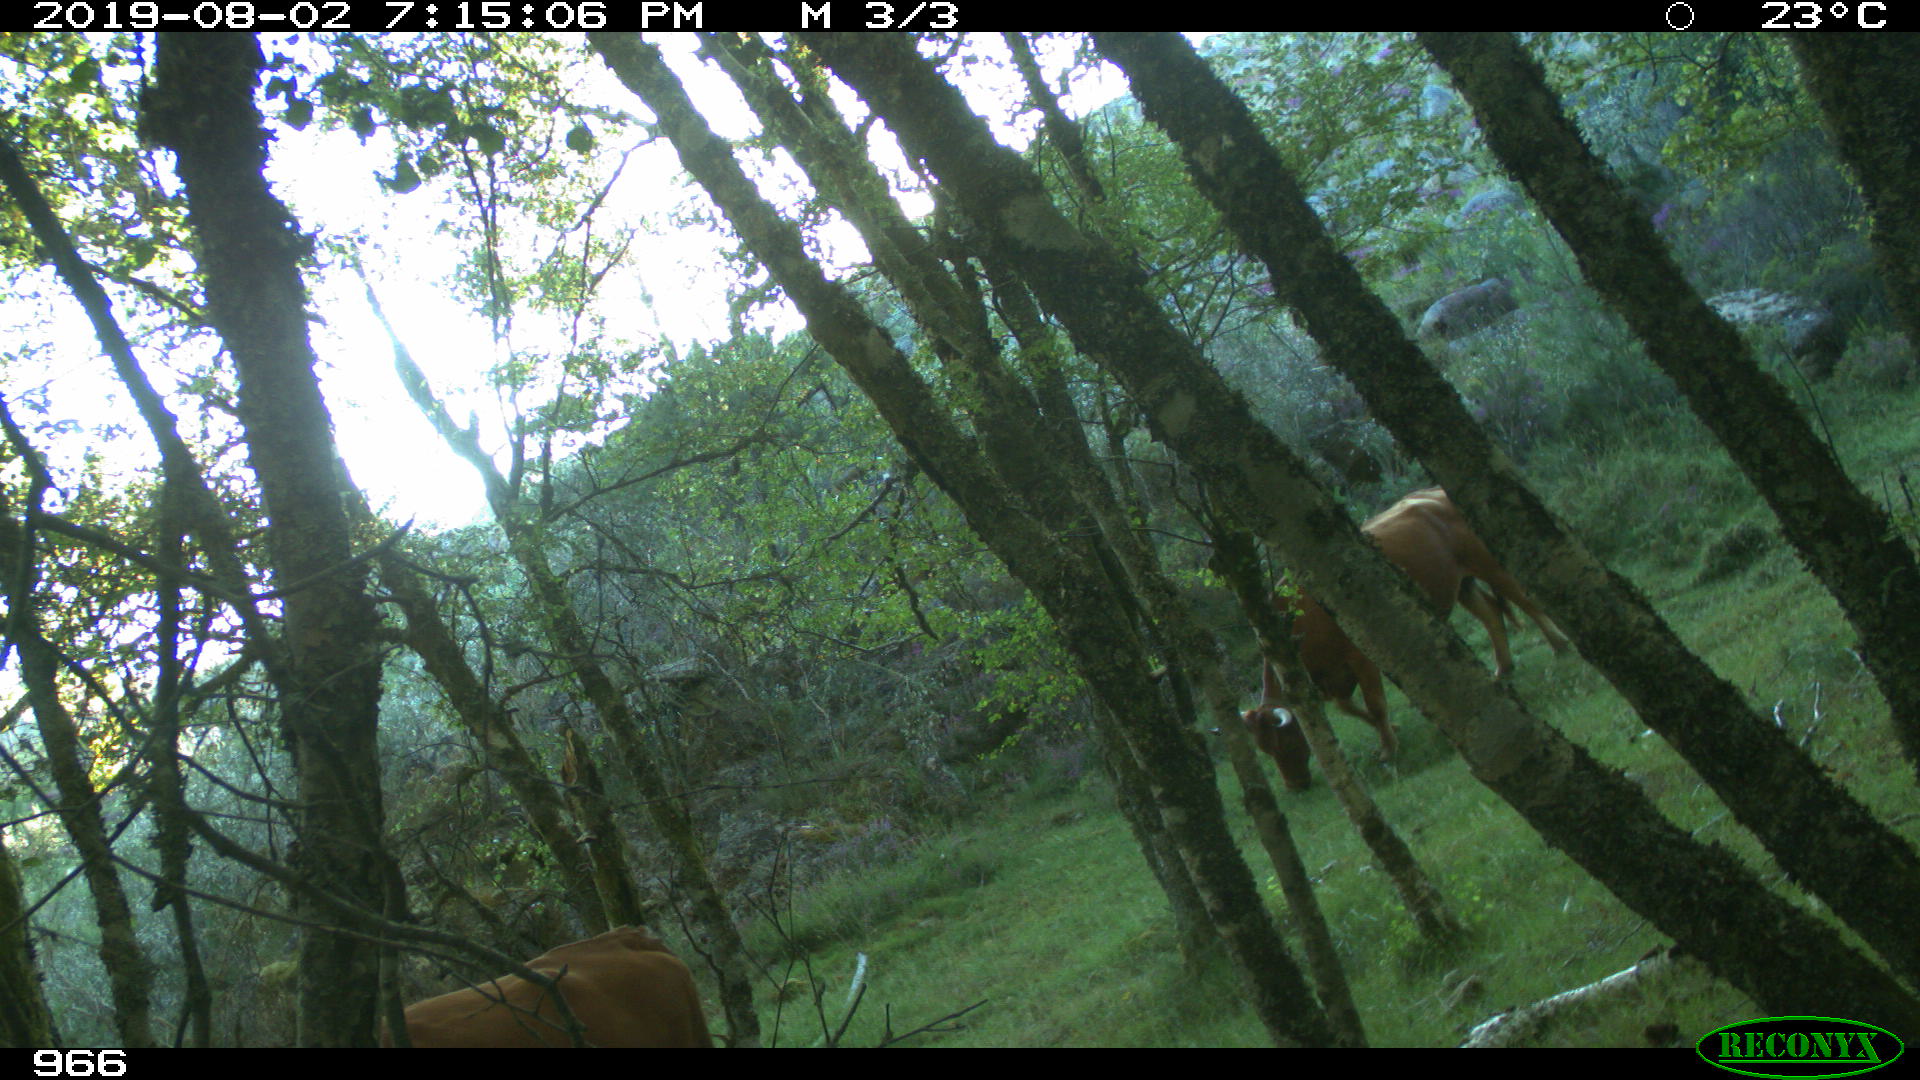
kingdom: Animalia
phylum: Chordata
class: Mammalia
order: Artiodactyla
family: Bovidae
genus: Bos
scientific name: Bos taurus
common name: Domesticated cattle
